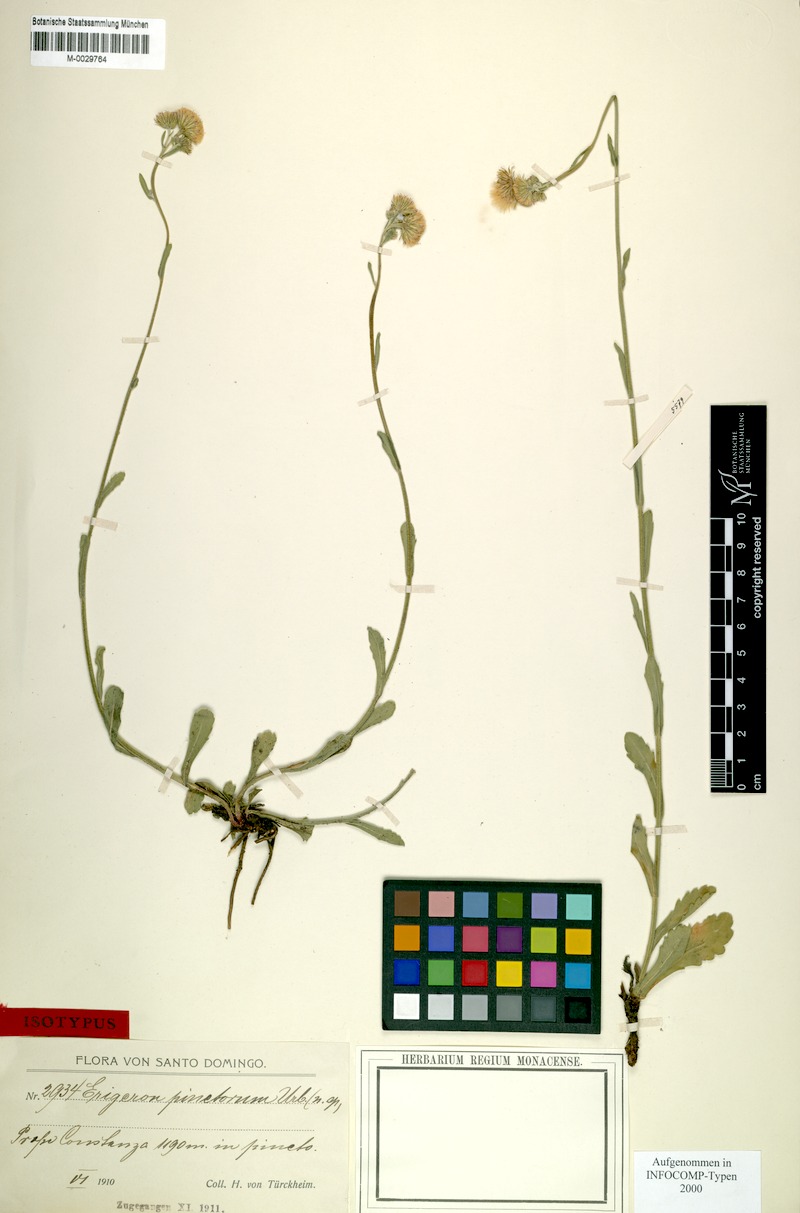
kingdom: Plantae
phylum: Tracheophyta
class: Magnoliopsida
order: Asterales
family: Asteraceae
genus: Erigeron
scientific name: Erigeron primulifolius
